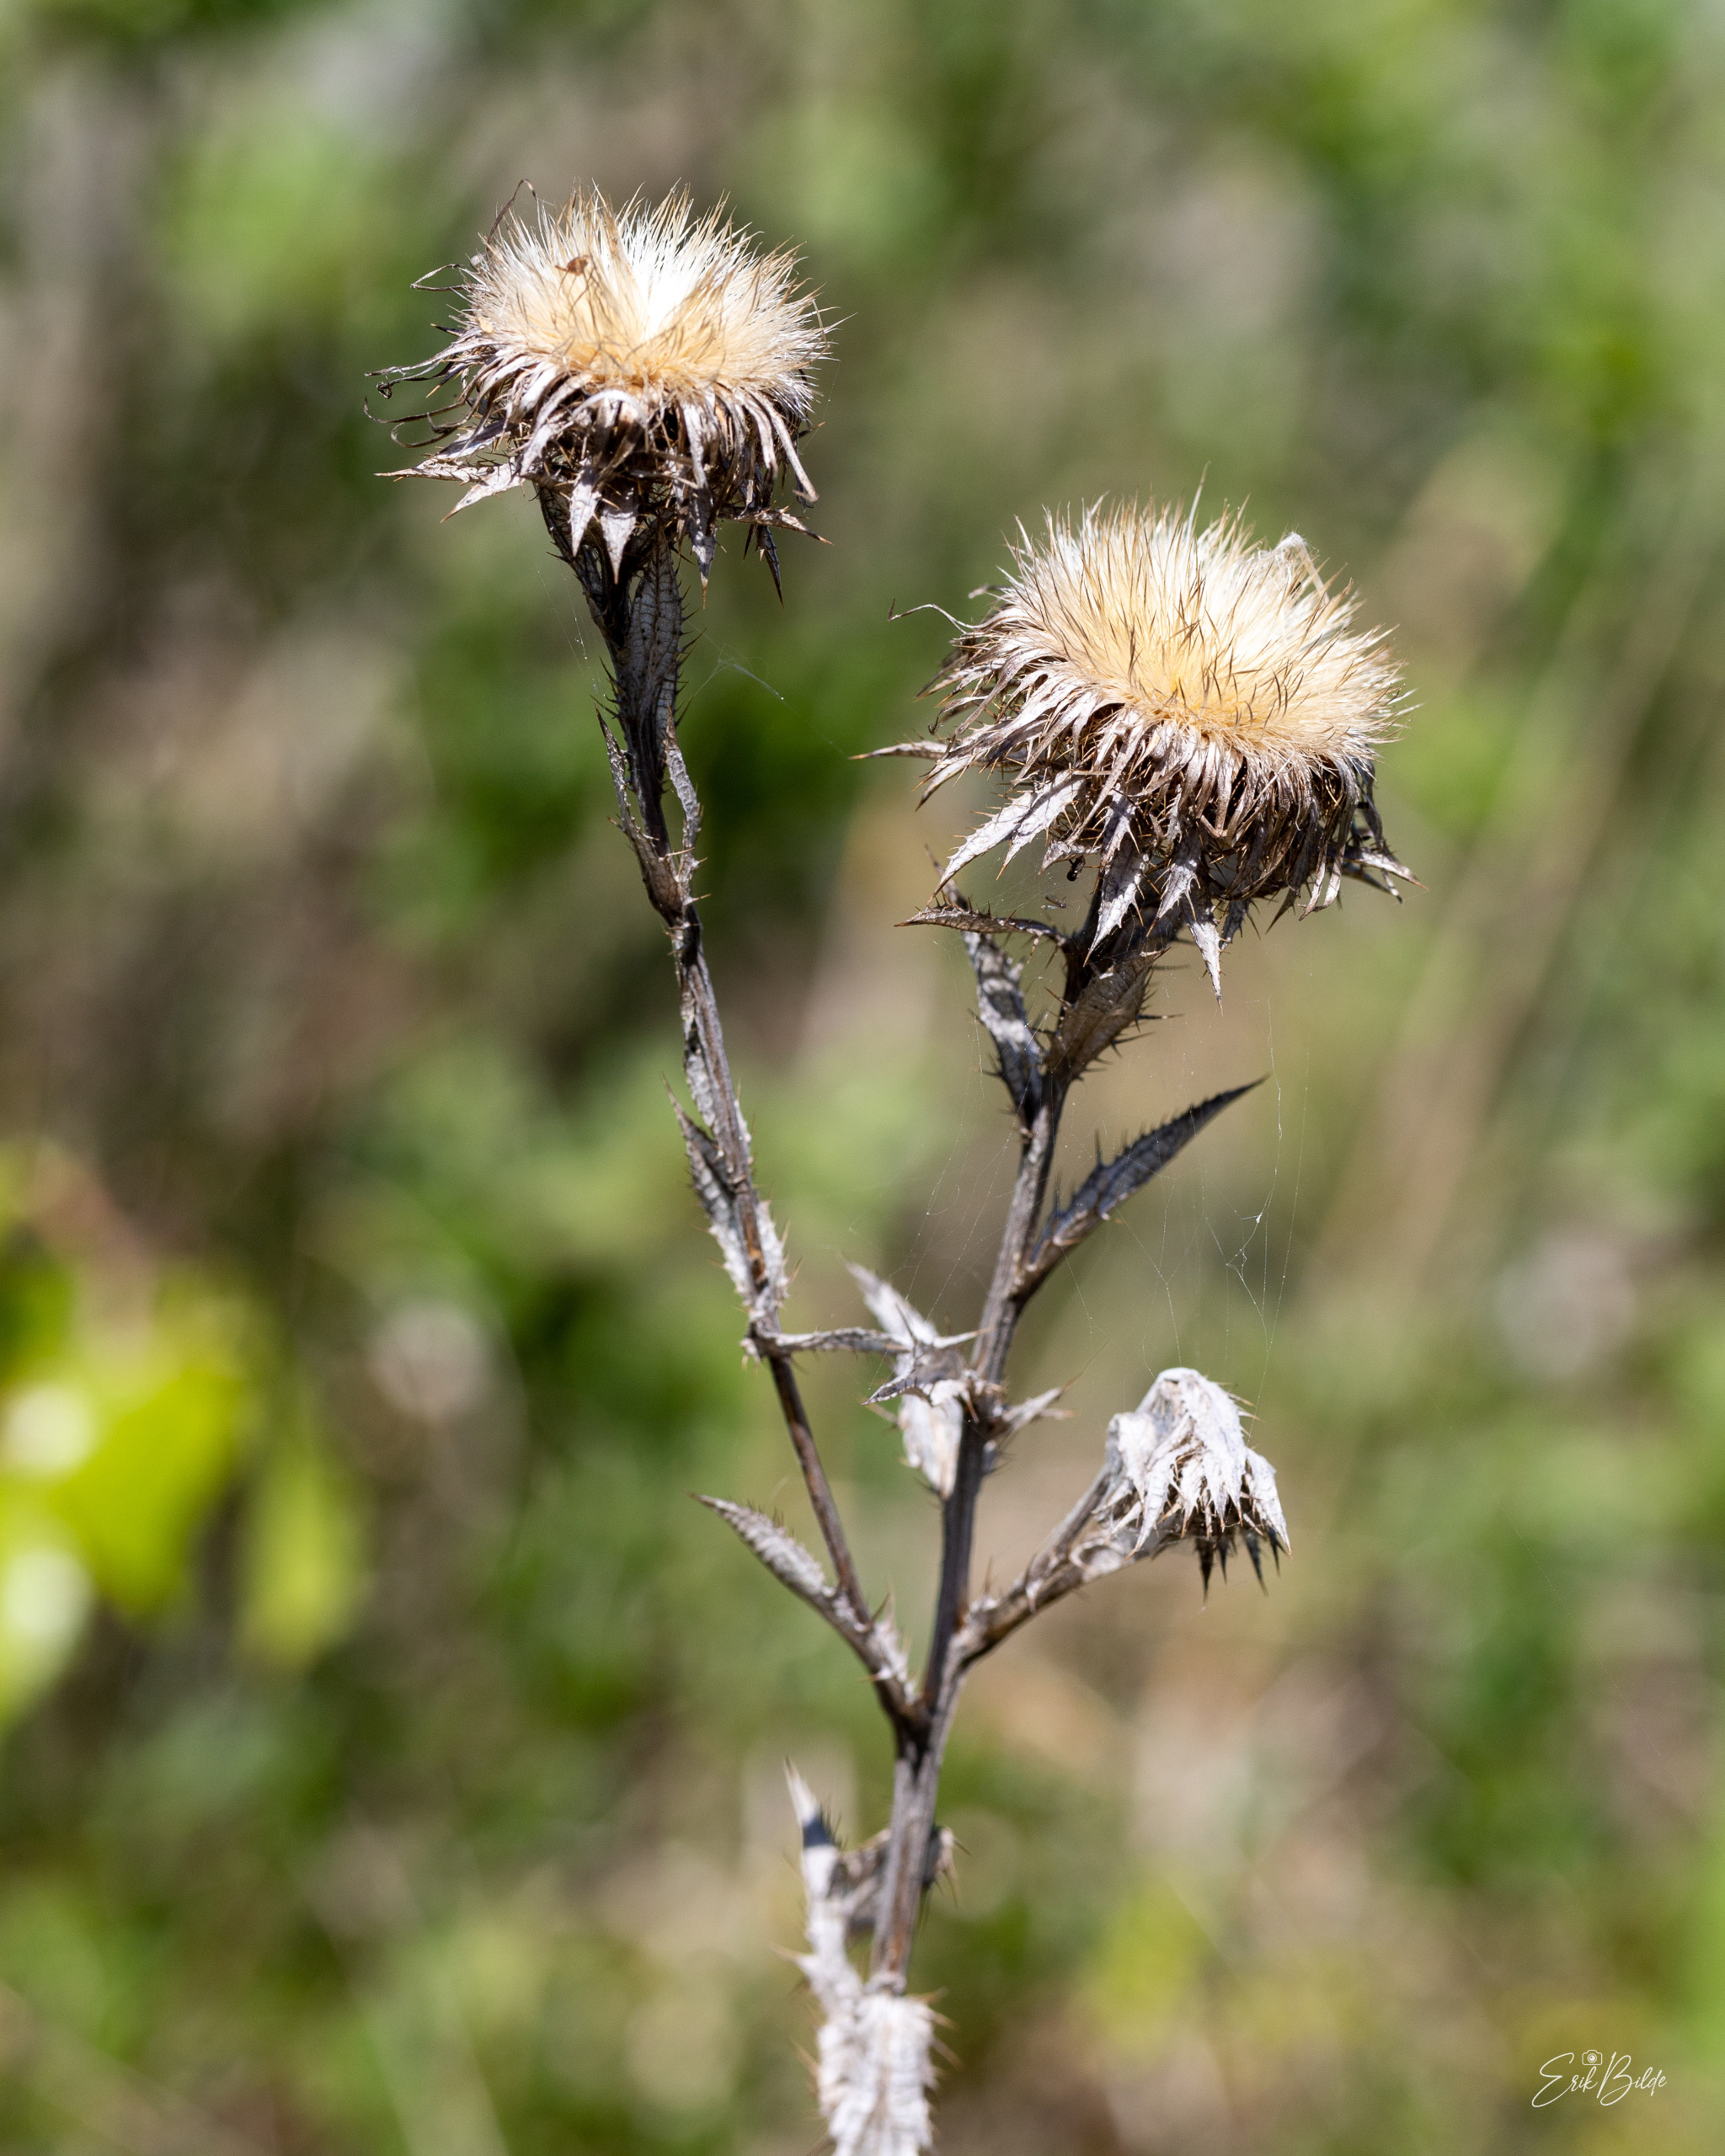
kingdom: Plantae
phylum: Tracheophyta
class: Magnoliopsida
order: Asterales
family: Asteraceae
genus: Carlina
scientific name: Carlina vulgaris
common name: Bakketidsel
